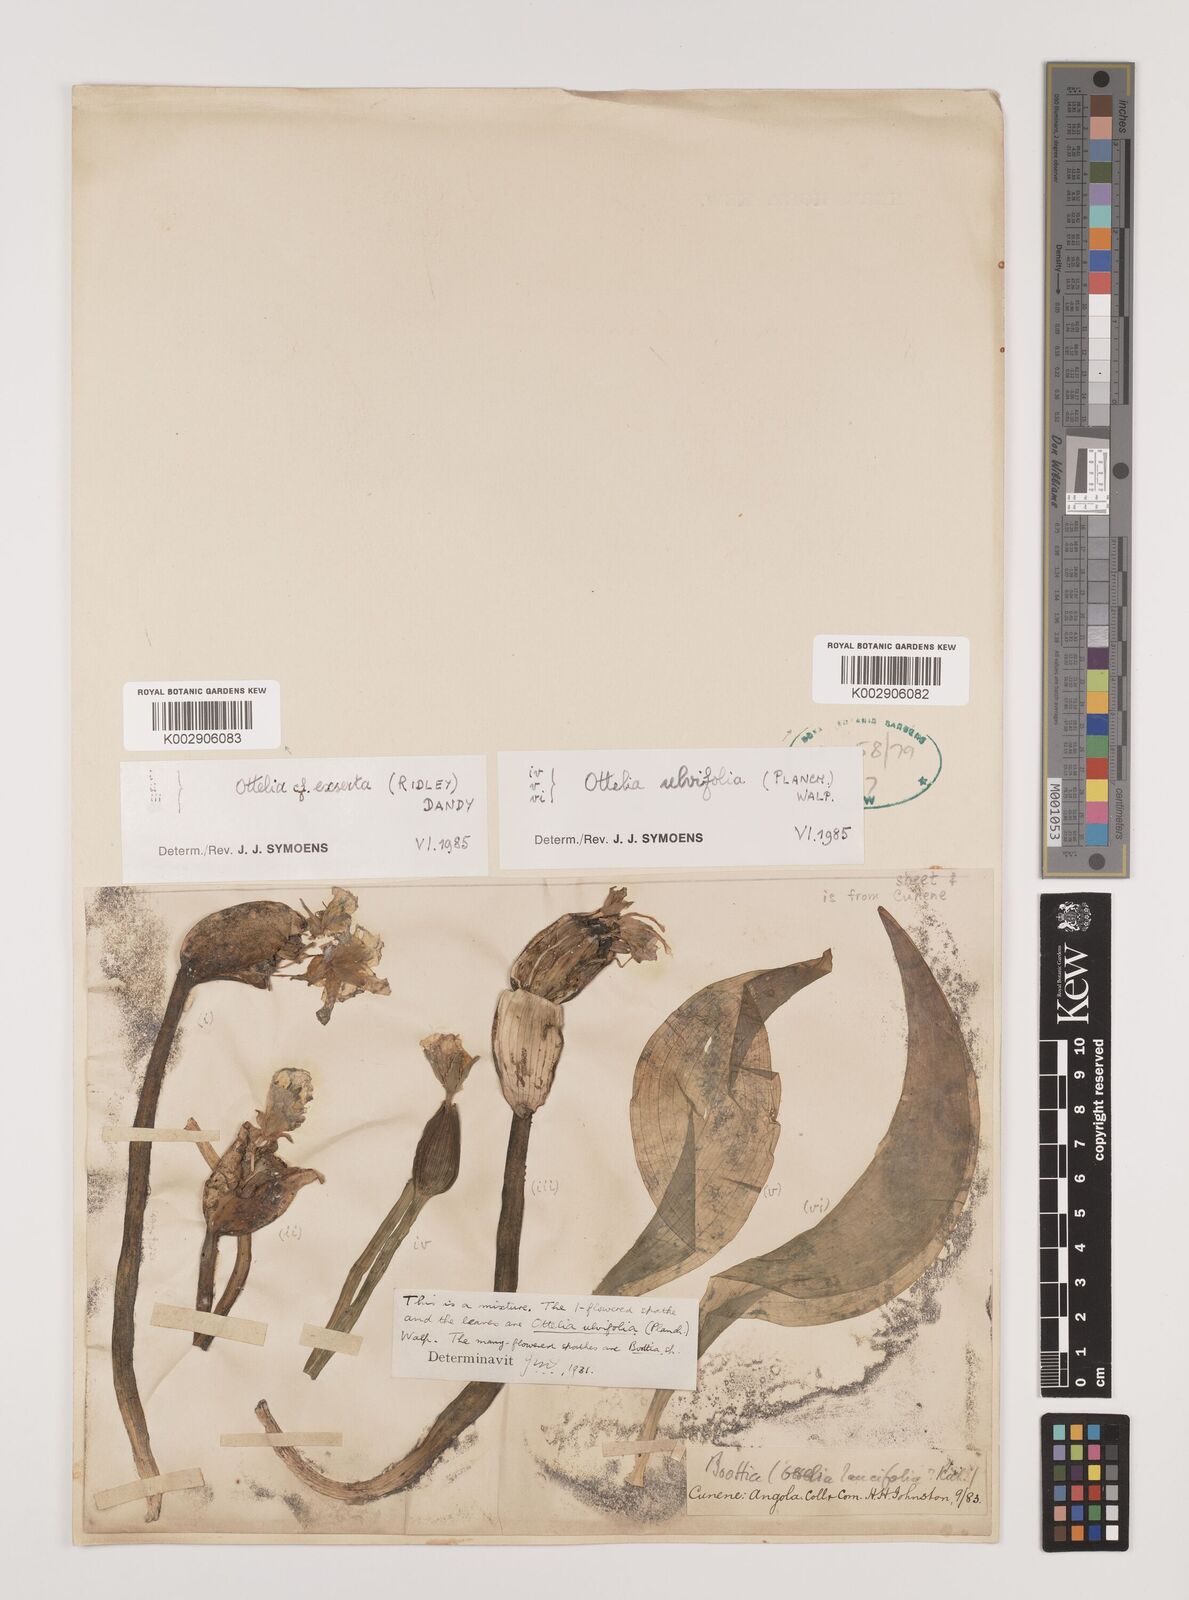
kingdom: Plantae
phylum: Tracheophyta
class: Liliopsida
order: Alismatales
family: Hydrocharitaceae
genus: Ottelia
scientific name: Ottelia ulvifolia
